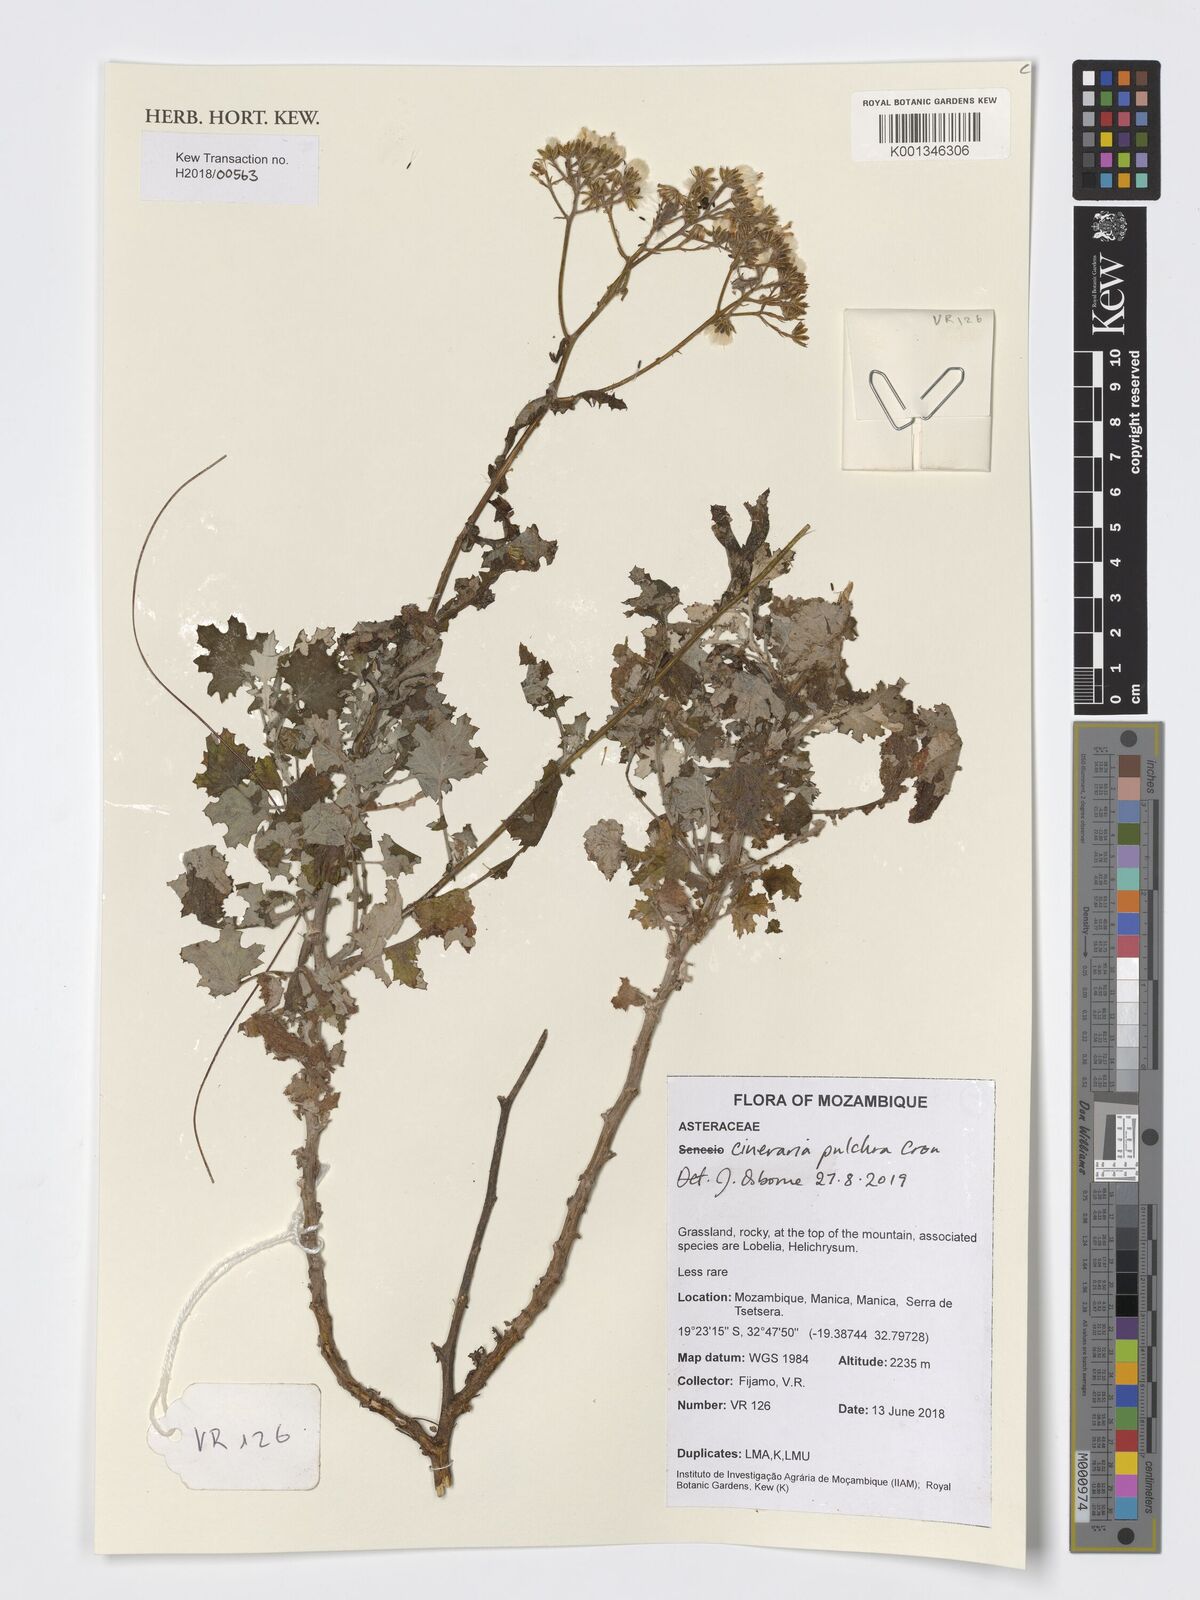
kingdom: Plantae
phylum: Tracheophyta
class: Magnoliopsida
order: Asterales
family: Asteraceae
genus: Cineraria
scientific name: Cineraria pulchra
